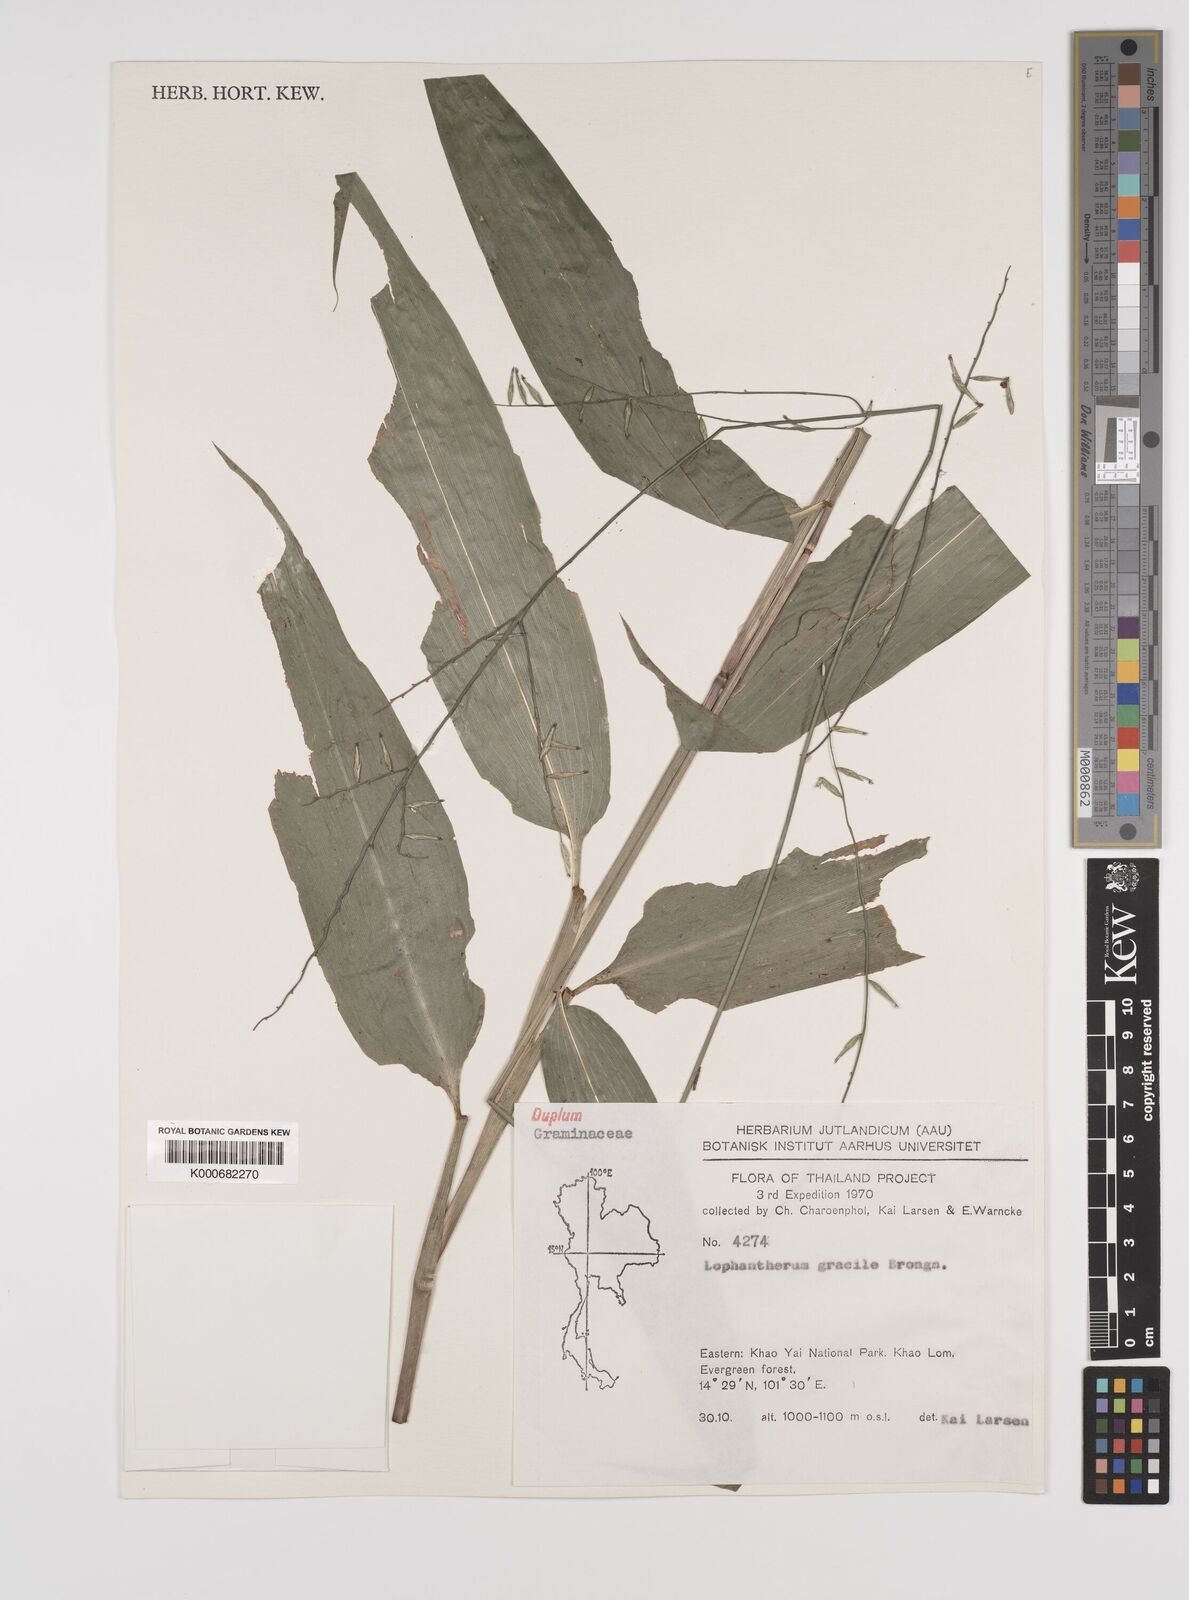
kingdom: Plantae
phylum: Tracheophyta
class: Liliopsida
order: Poales
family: Poaceae
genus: Lophatherum
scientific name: Lophatherum gracile
